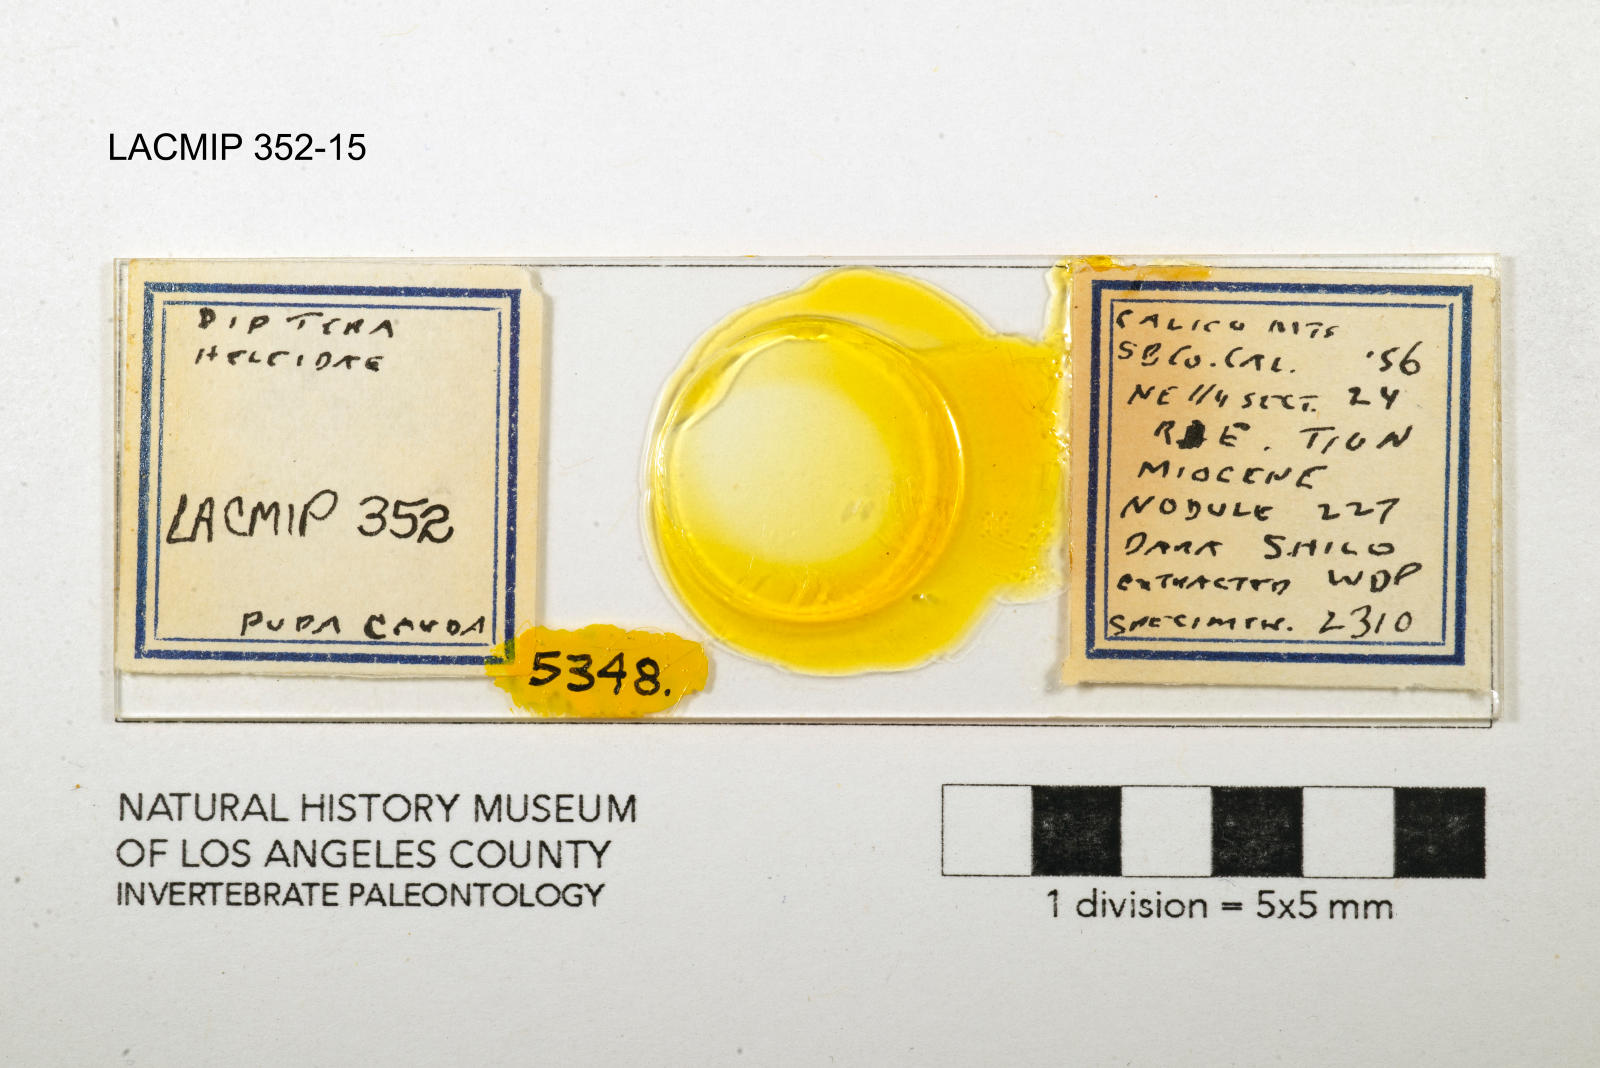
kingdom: Animalia
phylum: Arthropoda
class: Insecta
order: Diptera
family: Ceratopogonidae
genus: Dasyhelea
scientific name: Dasyhelea kanakoffi
